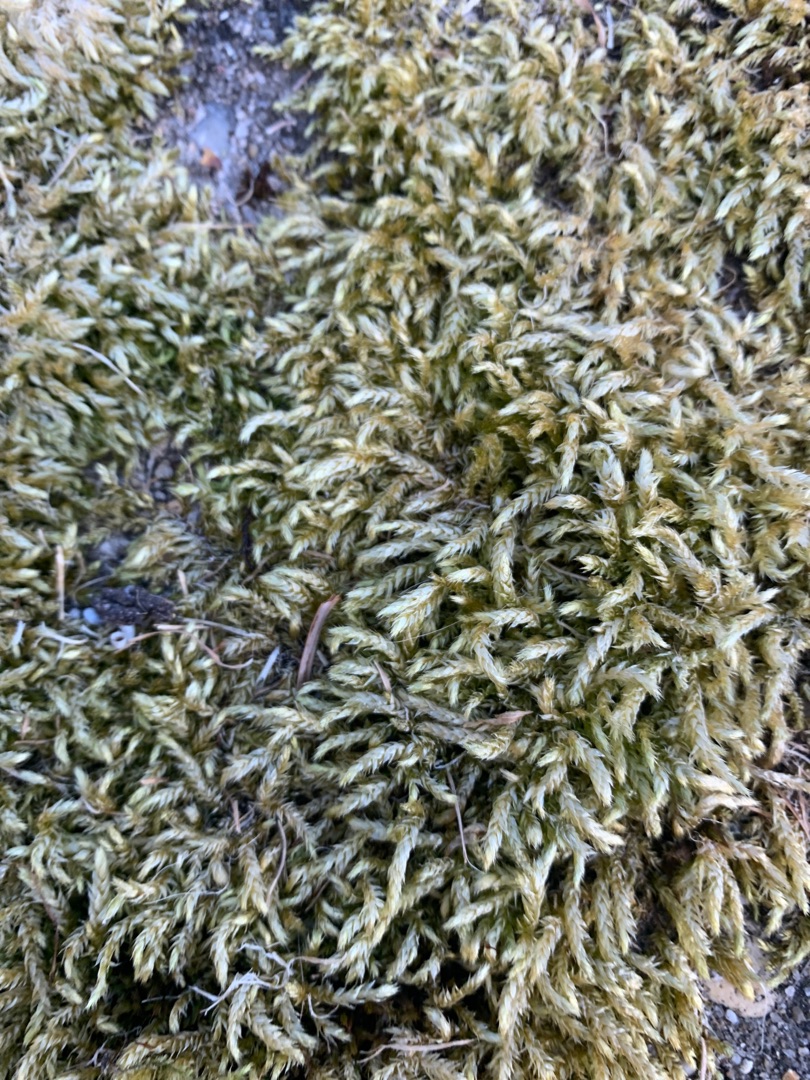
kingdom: Plantae
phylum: Bryophyta
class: Bryopsida
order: Hypnales
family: Brachytheciaceae
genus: Brachythecium
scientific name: Brachythecium rutabulum
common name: Almindelig kortkapsel
